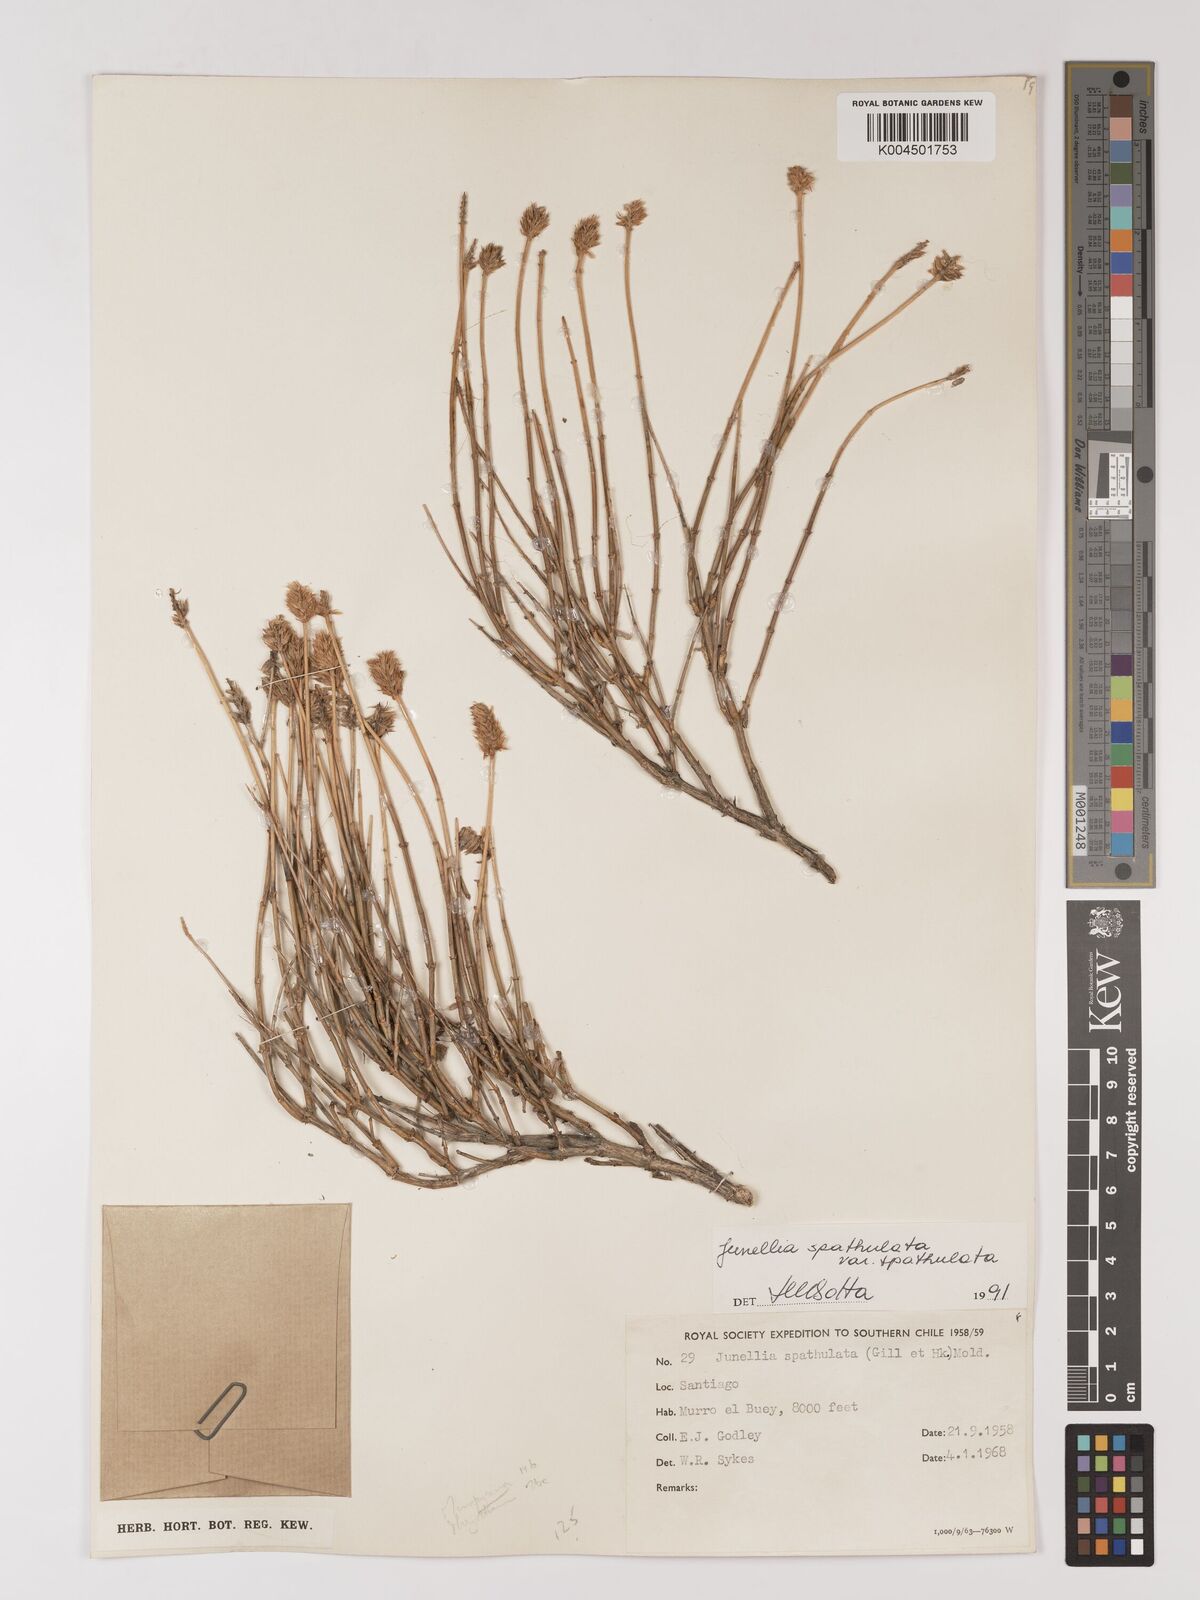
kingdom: Plantae
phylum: Tracheophyta
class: Magnoliopsida
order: Lamiales
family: Verbenaceae
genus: Junellia
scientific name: Junellia spathulata
